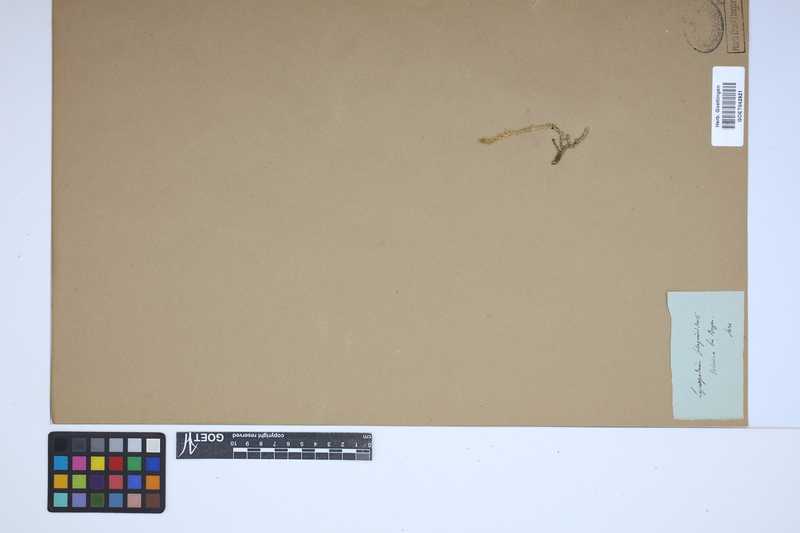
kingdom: Plantae
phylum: Tracheophyta
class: Lycopodiopsida
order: Selaginellales
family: Selaginellaceae
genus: Selaginella
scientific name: Selaginella selaginoides
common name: Prickly mountain-moss
